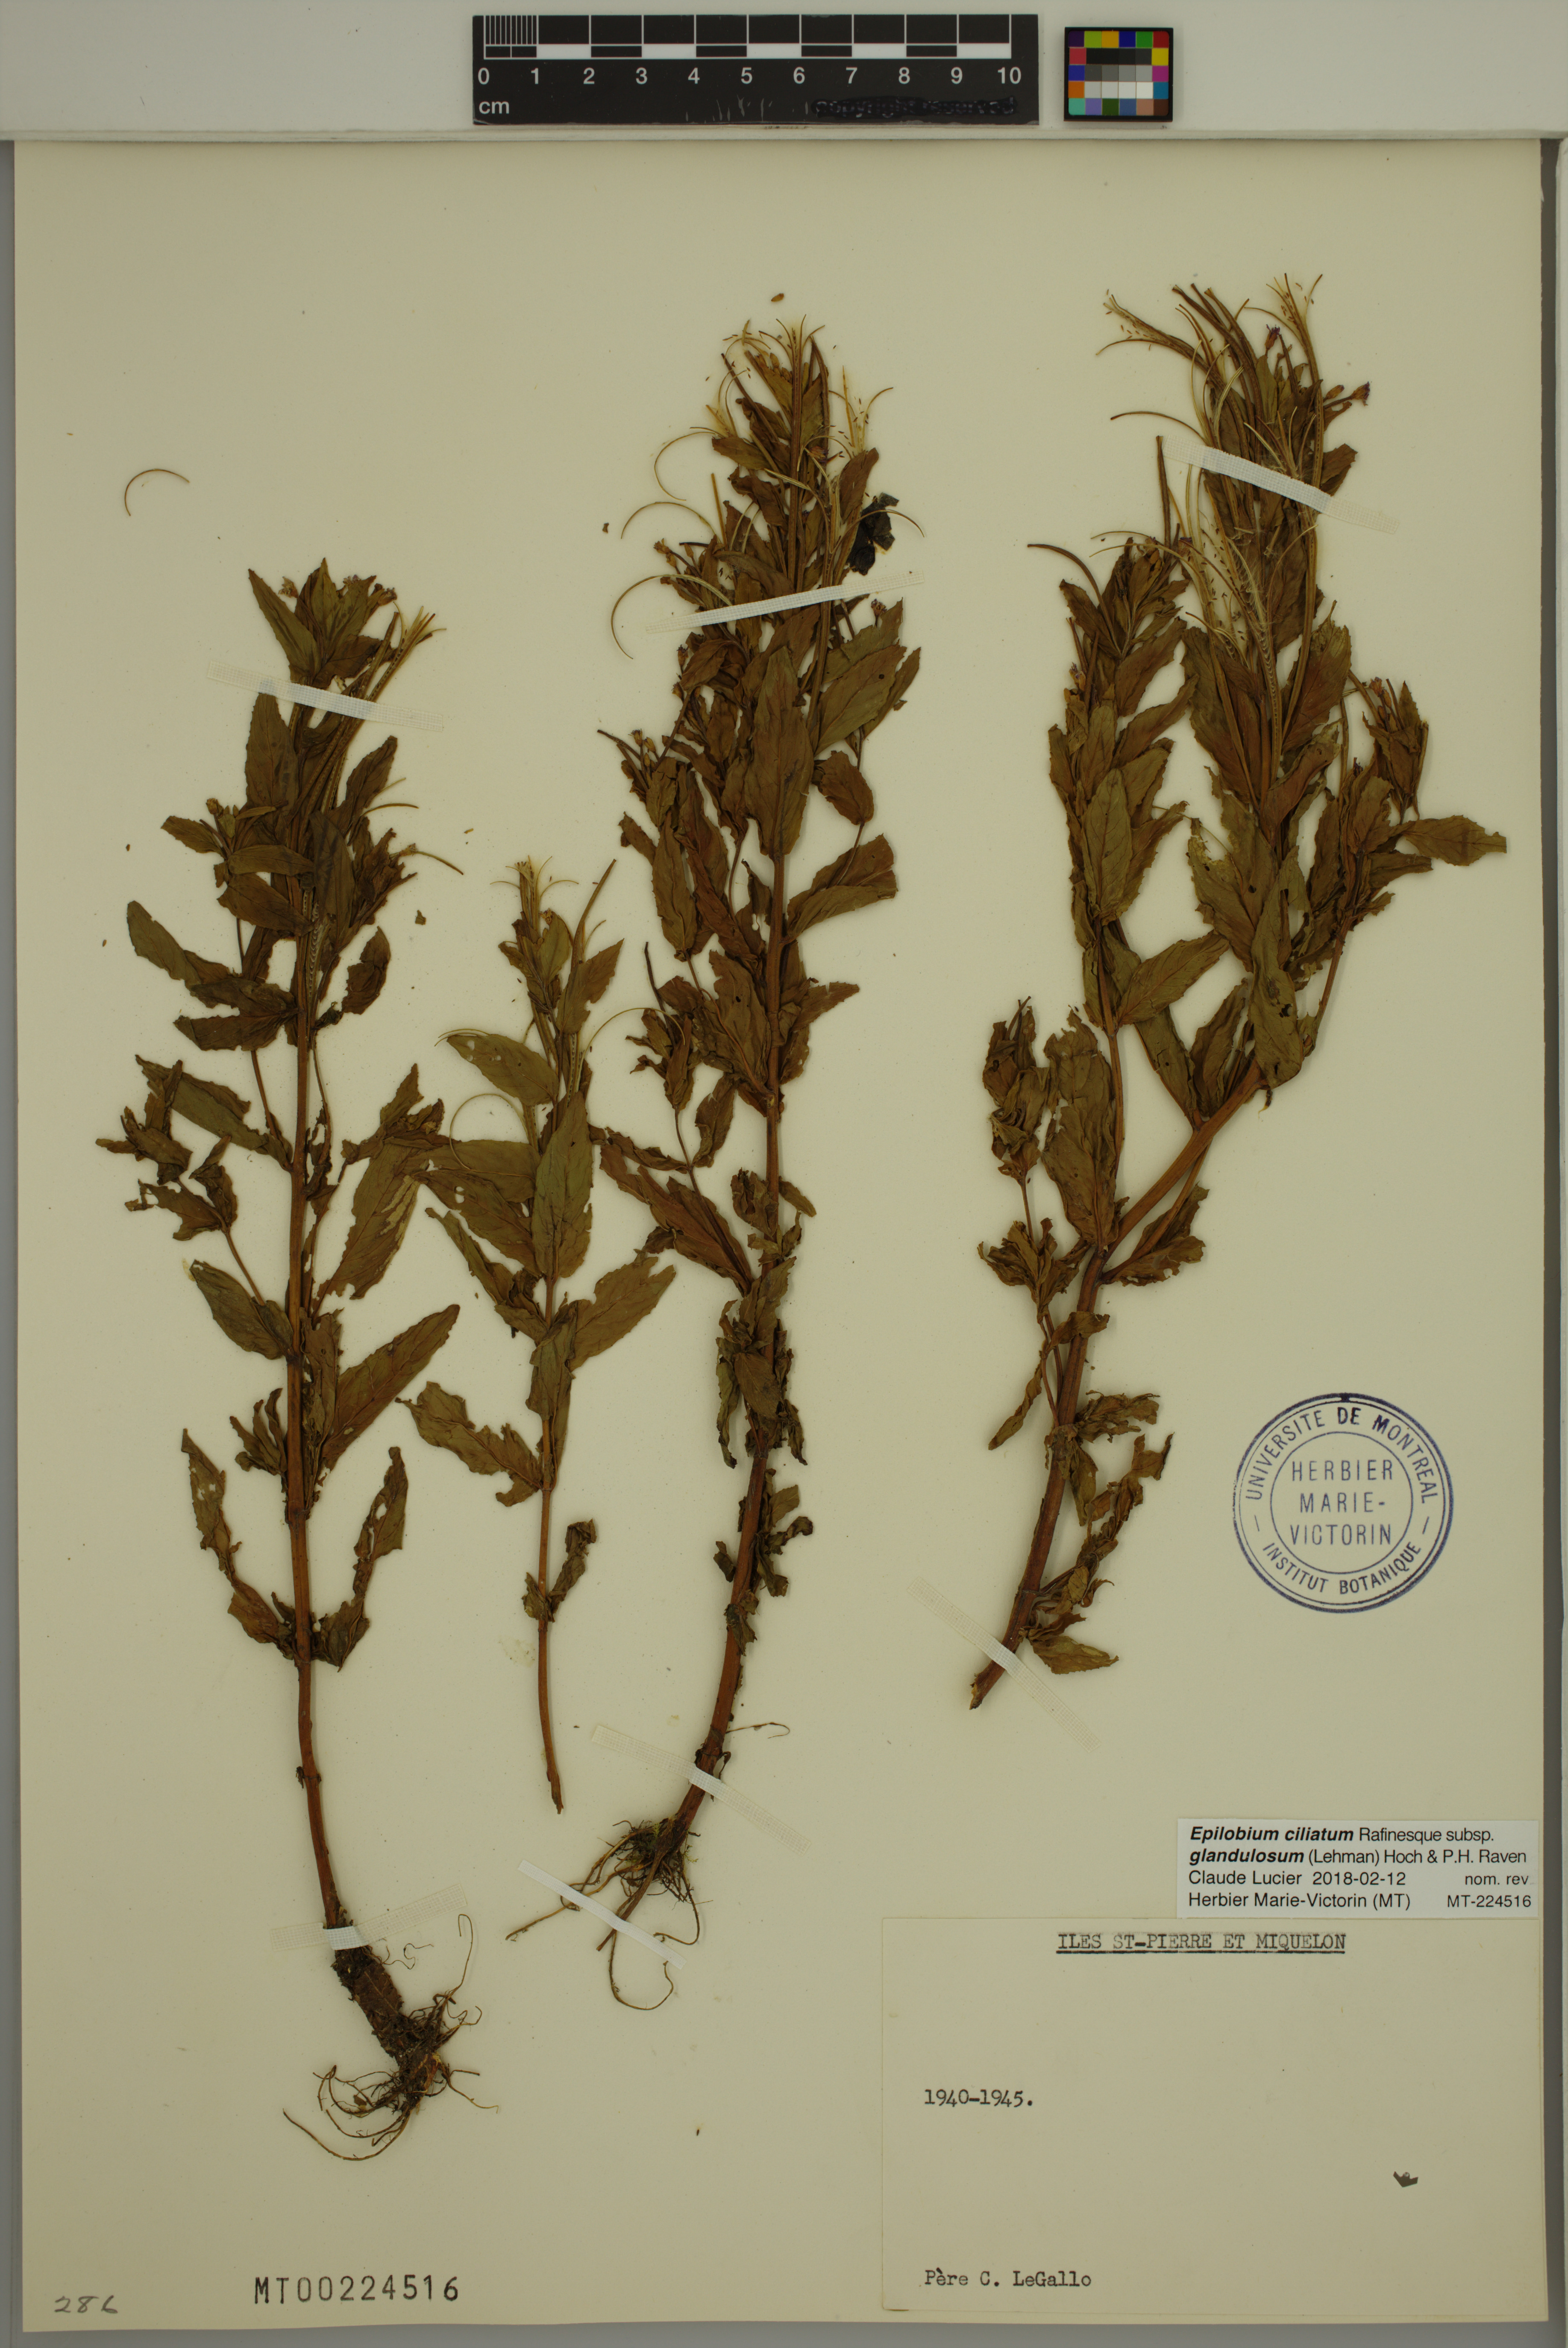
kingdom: Plantae
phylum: Tracheophyta
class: Magnoliopsida
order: Myrtales
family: Onagraceae
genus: Epilobium
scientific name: Epilobium ciliatum
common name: American willowherb
